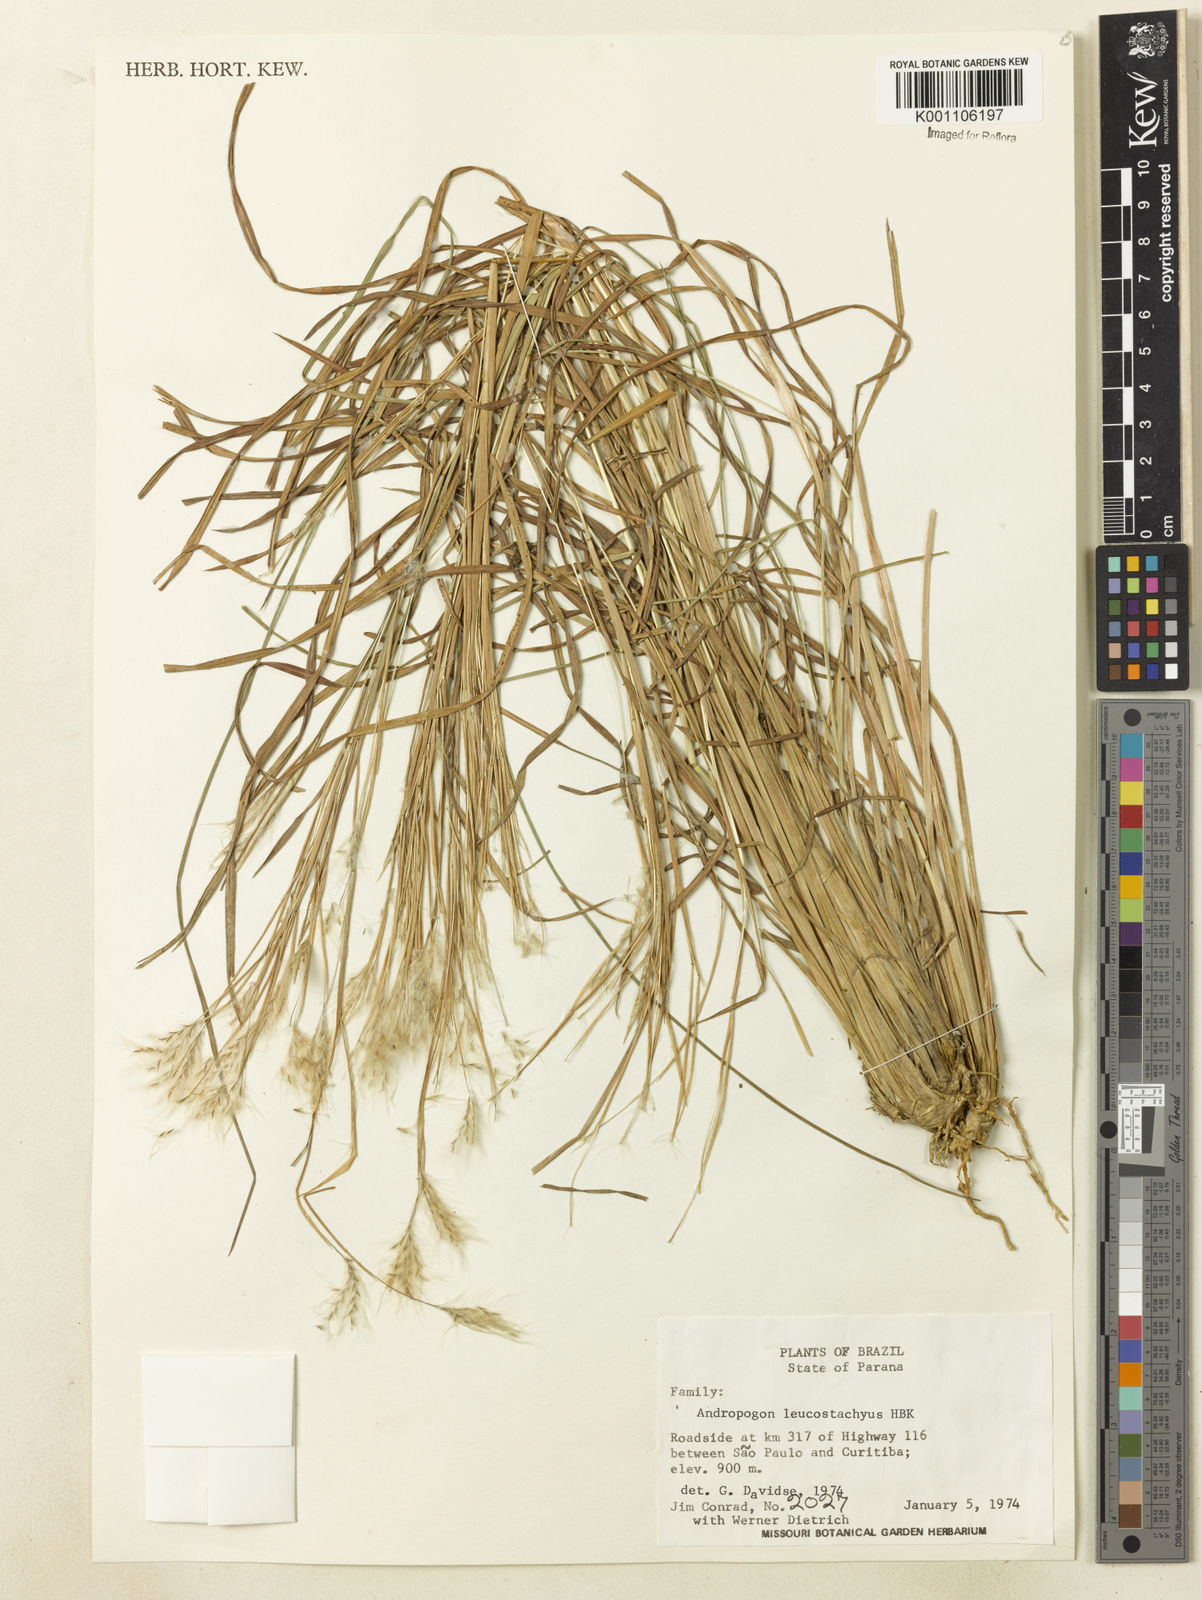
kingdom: Plantae
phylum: Tracheophyta
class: Liliopsida
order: Poales
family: Poaceae
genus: Andropogon
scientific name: Andropogon leucostachyus
